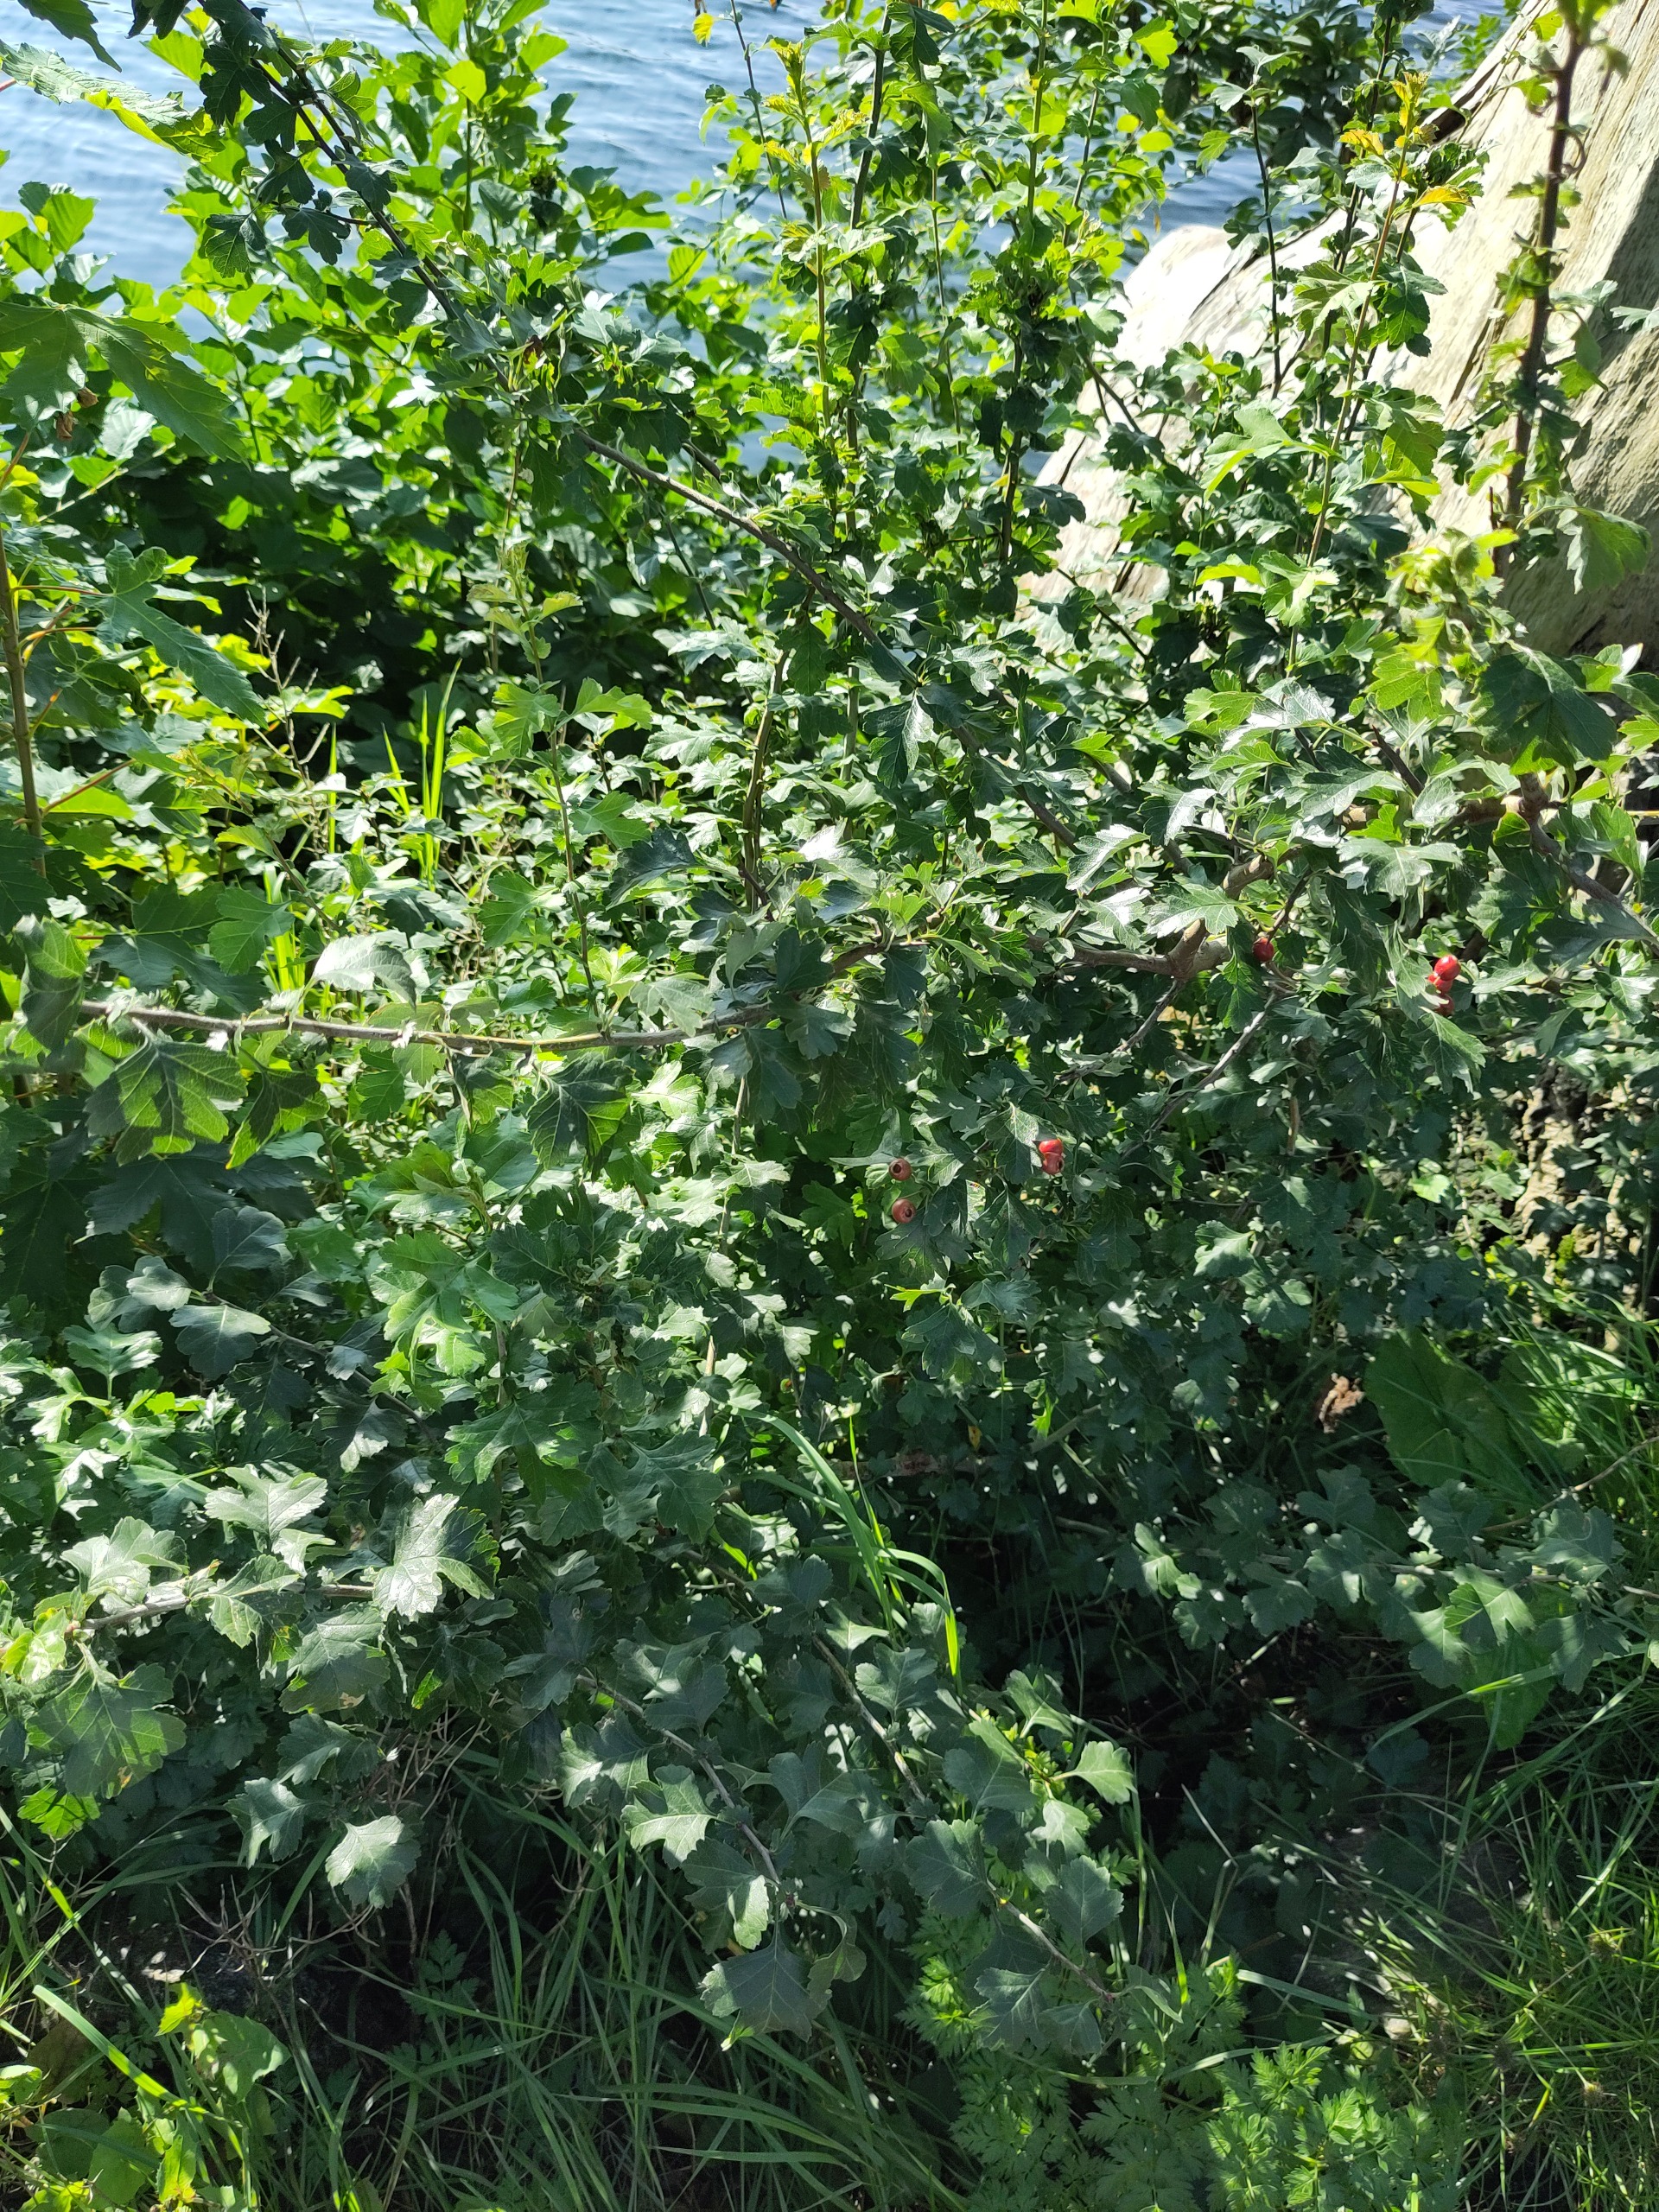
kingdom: Plantae
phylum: Tracheophyta
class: Magnoliopsida
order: Rosales
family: Rosaceae
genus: Crataegus
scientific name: Crataegus monogyna
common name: Engriflet hvidtjørn
